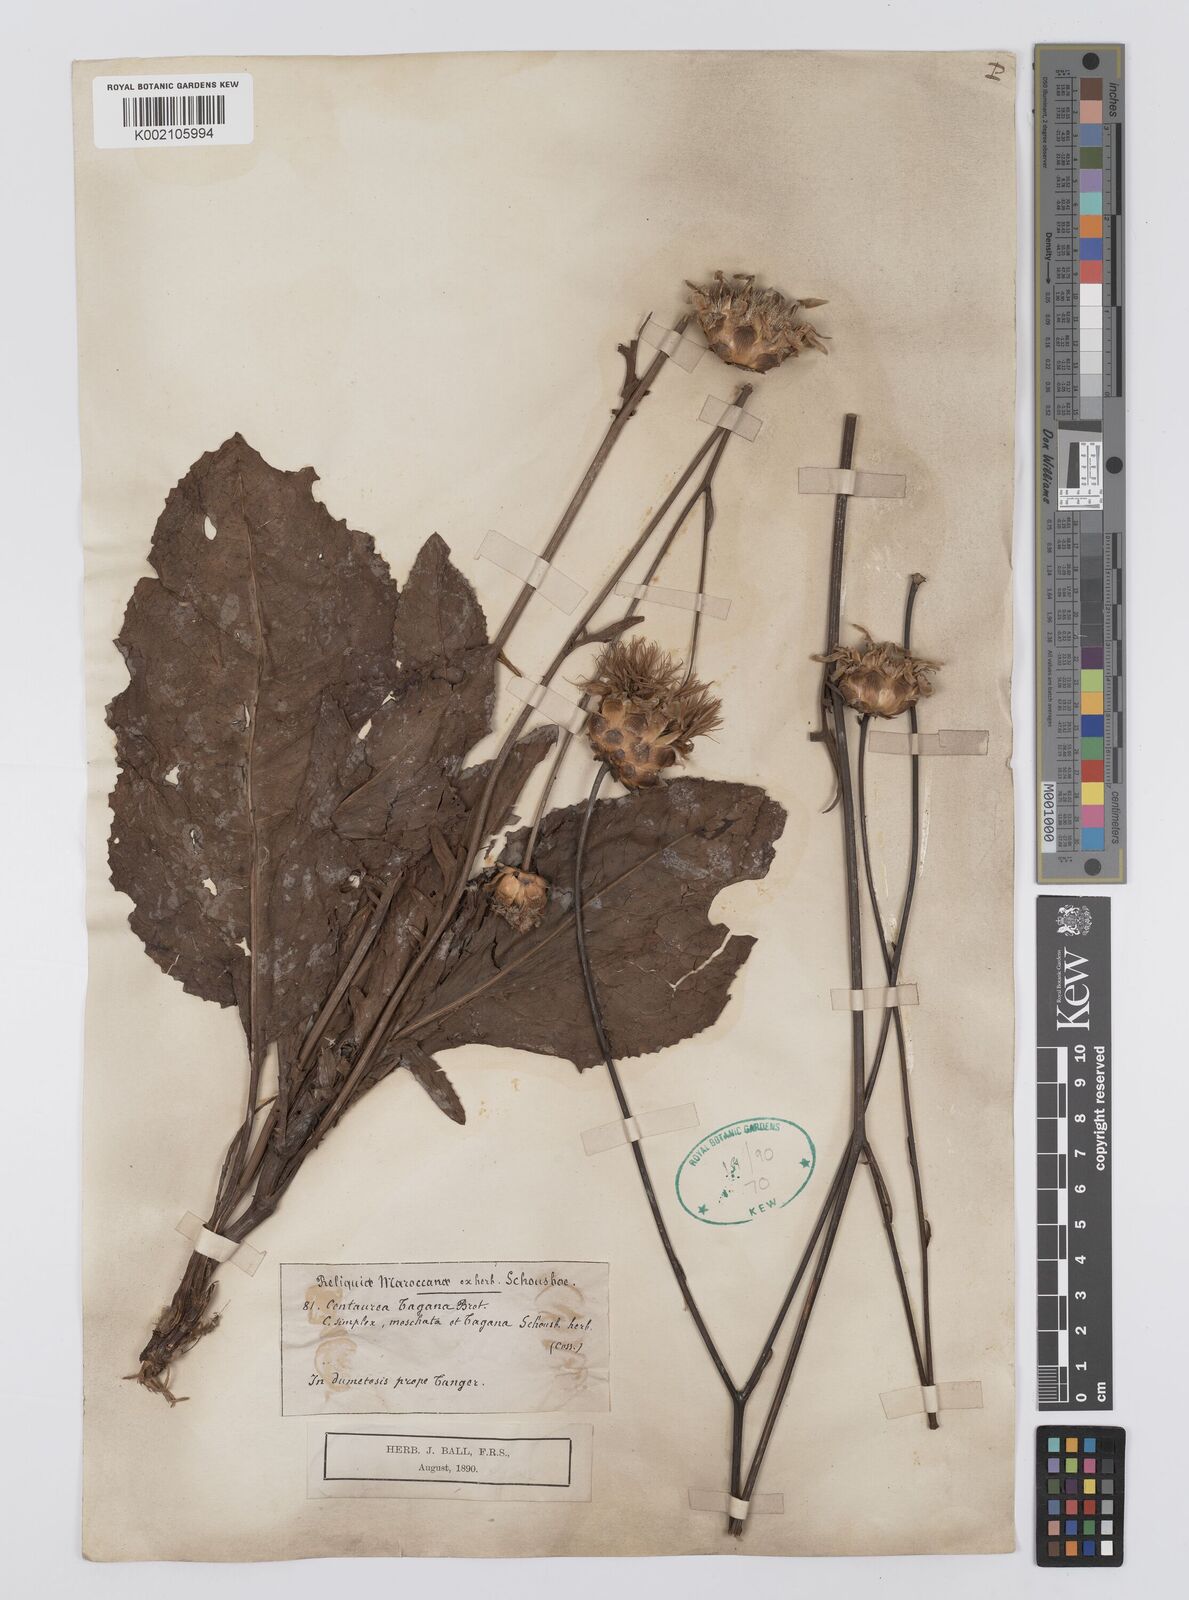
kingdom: Plantae
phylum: Tracheophyta
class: Magnoliopsida
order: Asterales
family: Asteraceae
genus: Rhaponticoides
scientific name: Rhaponticoides africana
